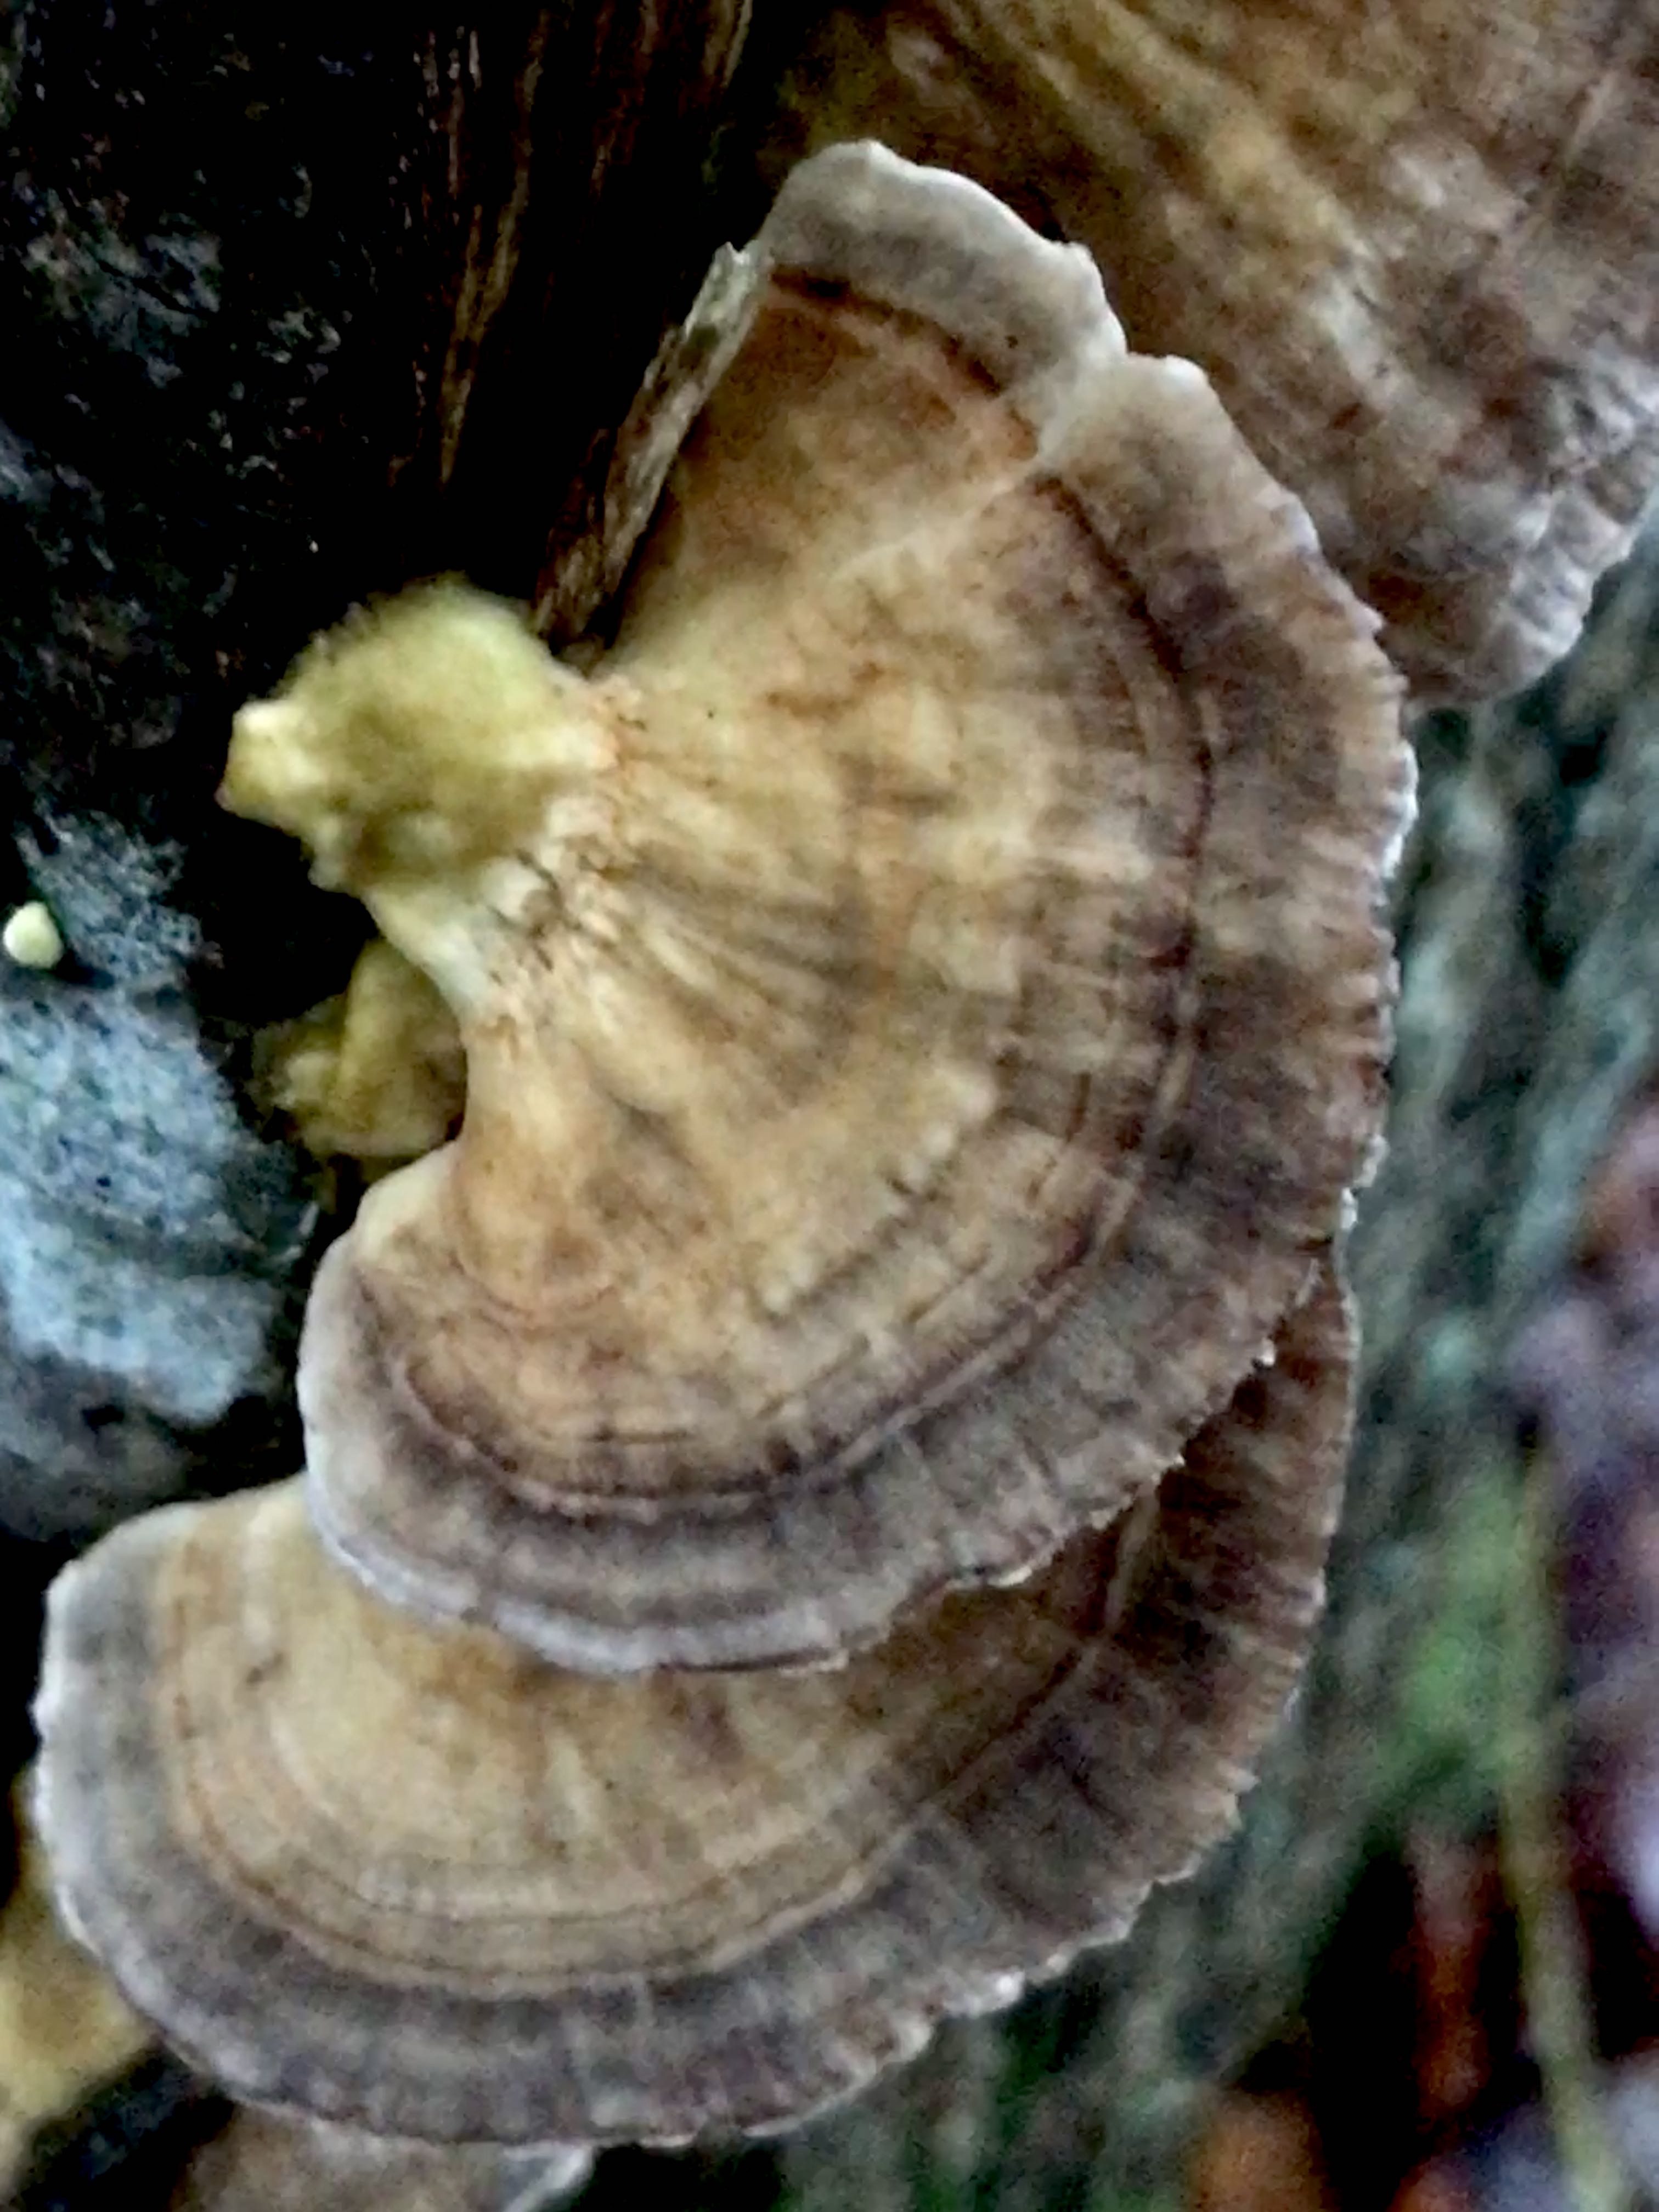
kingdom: Fungi
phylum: Basidiomycota
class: Agaricomycetes
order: Polyporales
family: Polyporaceae
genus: Trametes
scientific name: Trametes versicolor
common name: broget læderporesvamp
